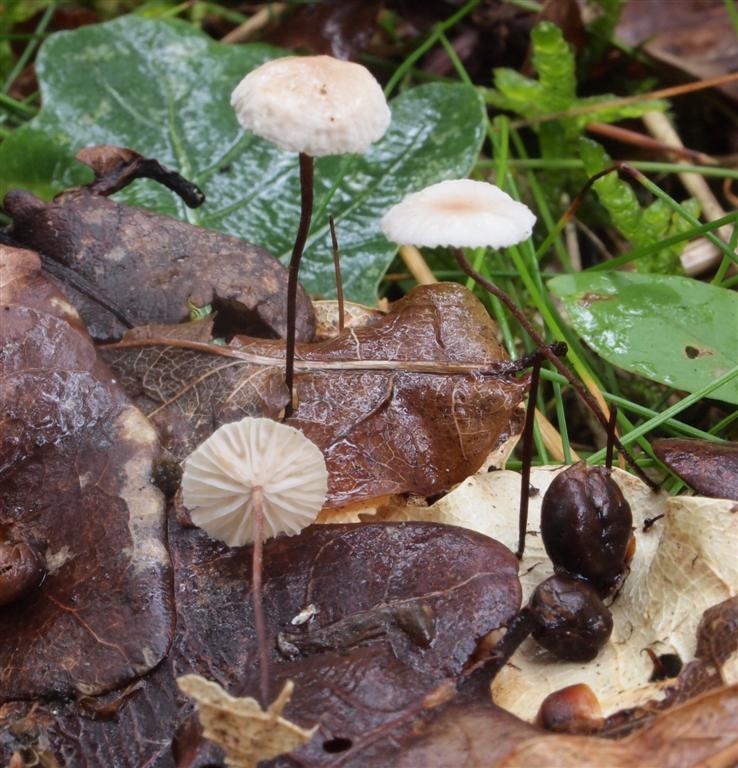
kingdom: Fungi
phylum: Basidiomycota
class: Agaricomycetes
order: Agaricales
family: Omphalotaceae
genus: Collybiopsis
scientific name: Collybiopsis quercophila
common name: egeblads-bruskhat
